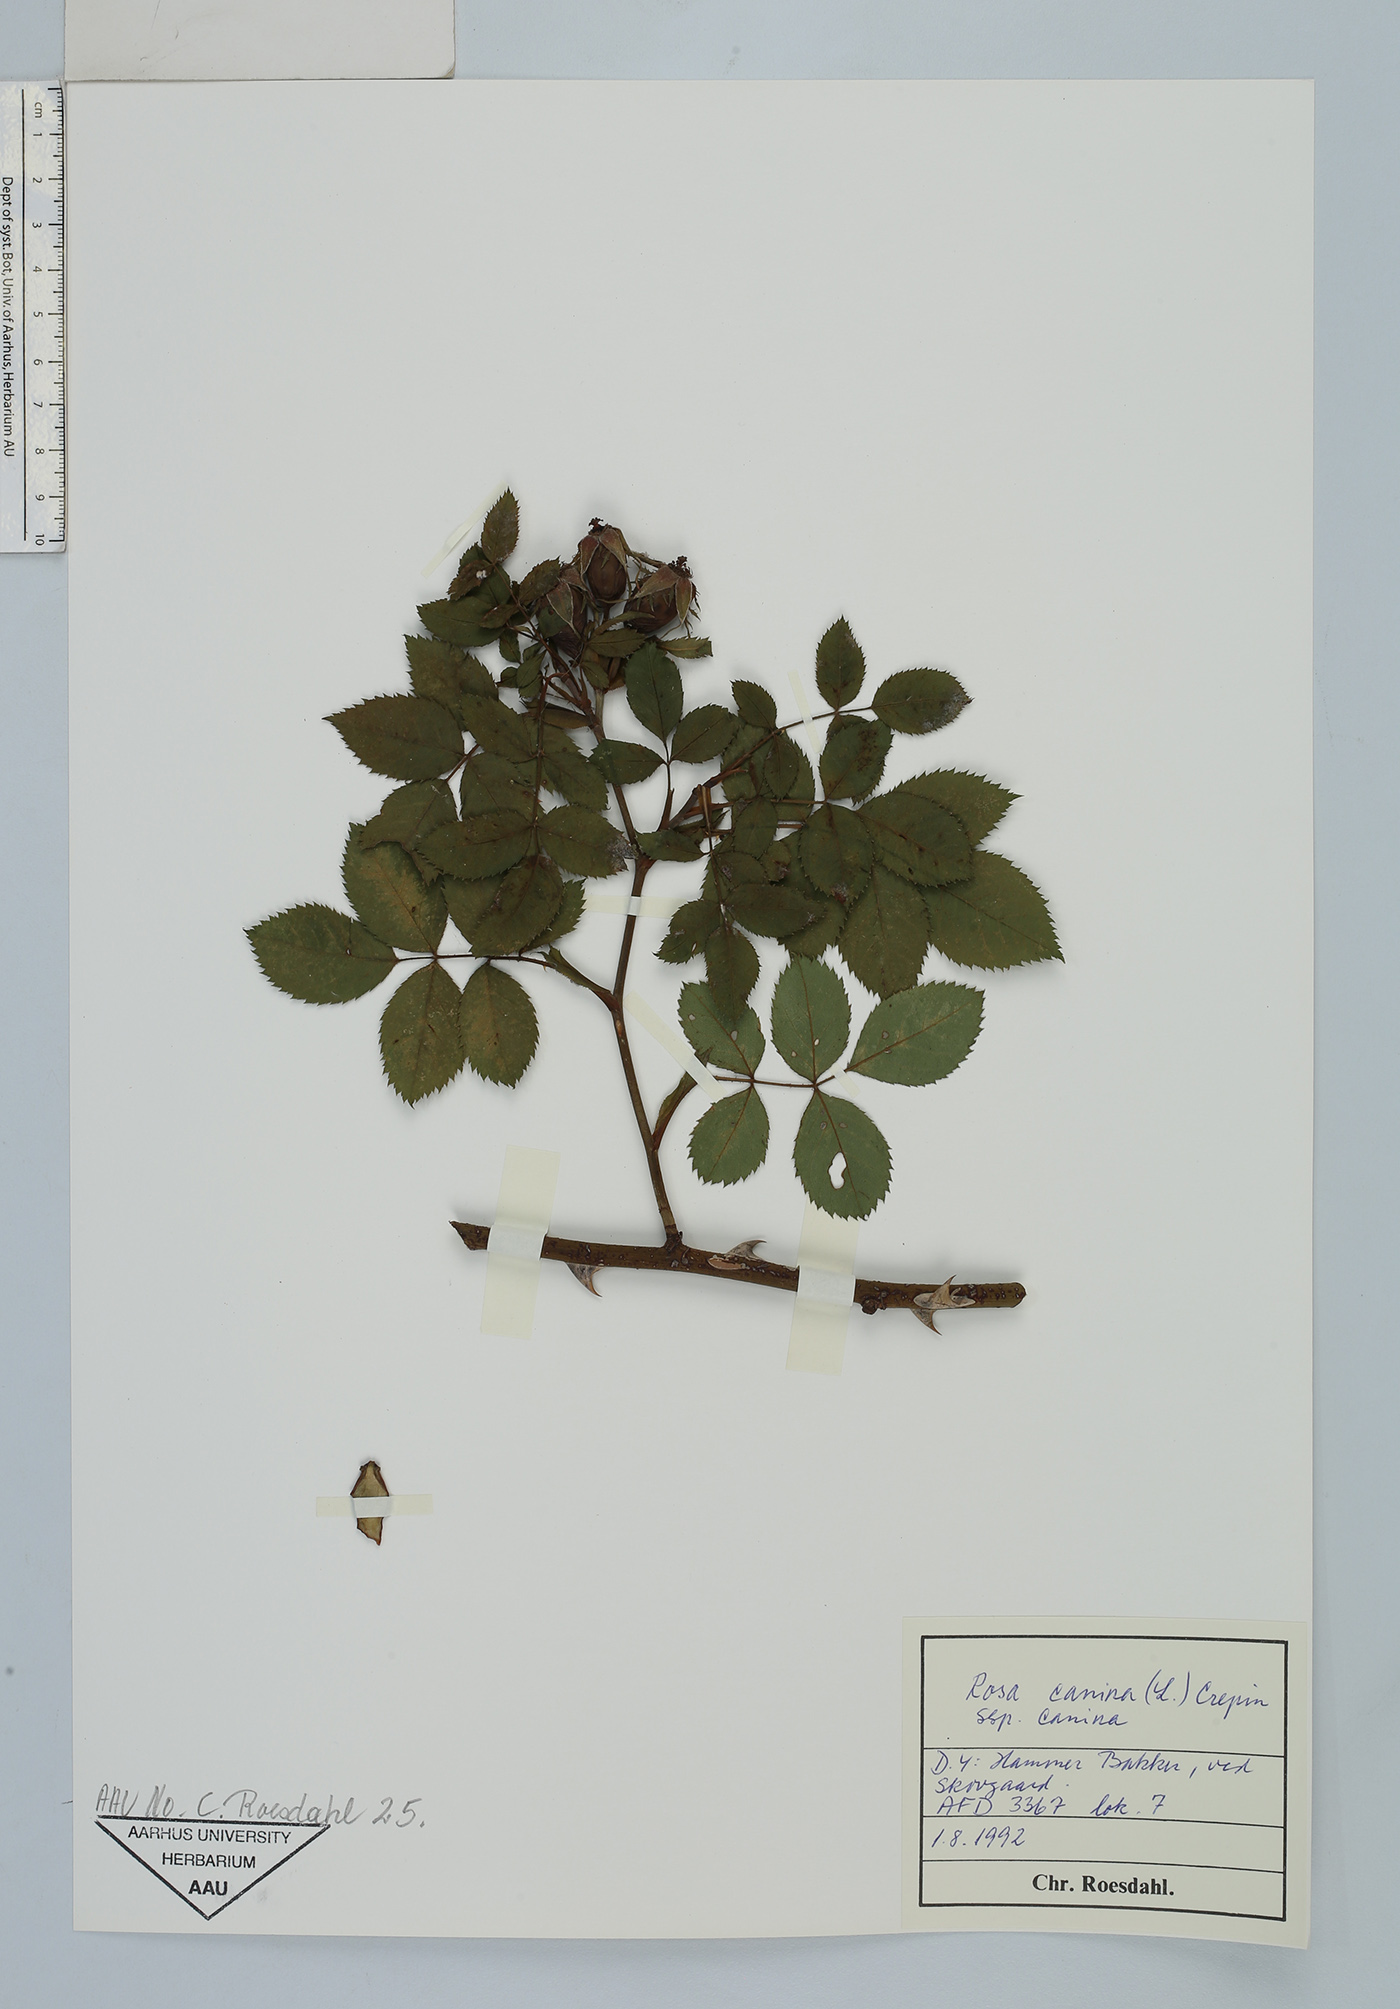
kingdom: Plantae
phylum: Tracheophyta
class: Magnoliopsida
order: Rosales
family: Rosaceae
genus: Rosa
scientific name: Rosa canina
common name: Dog rose
